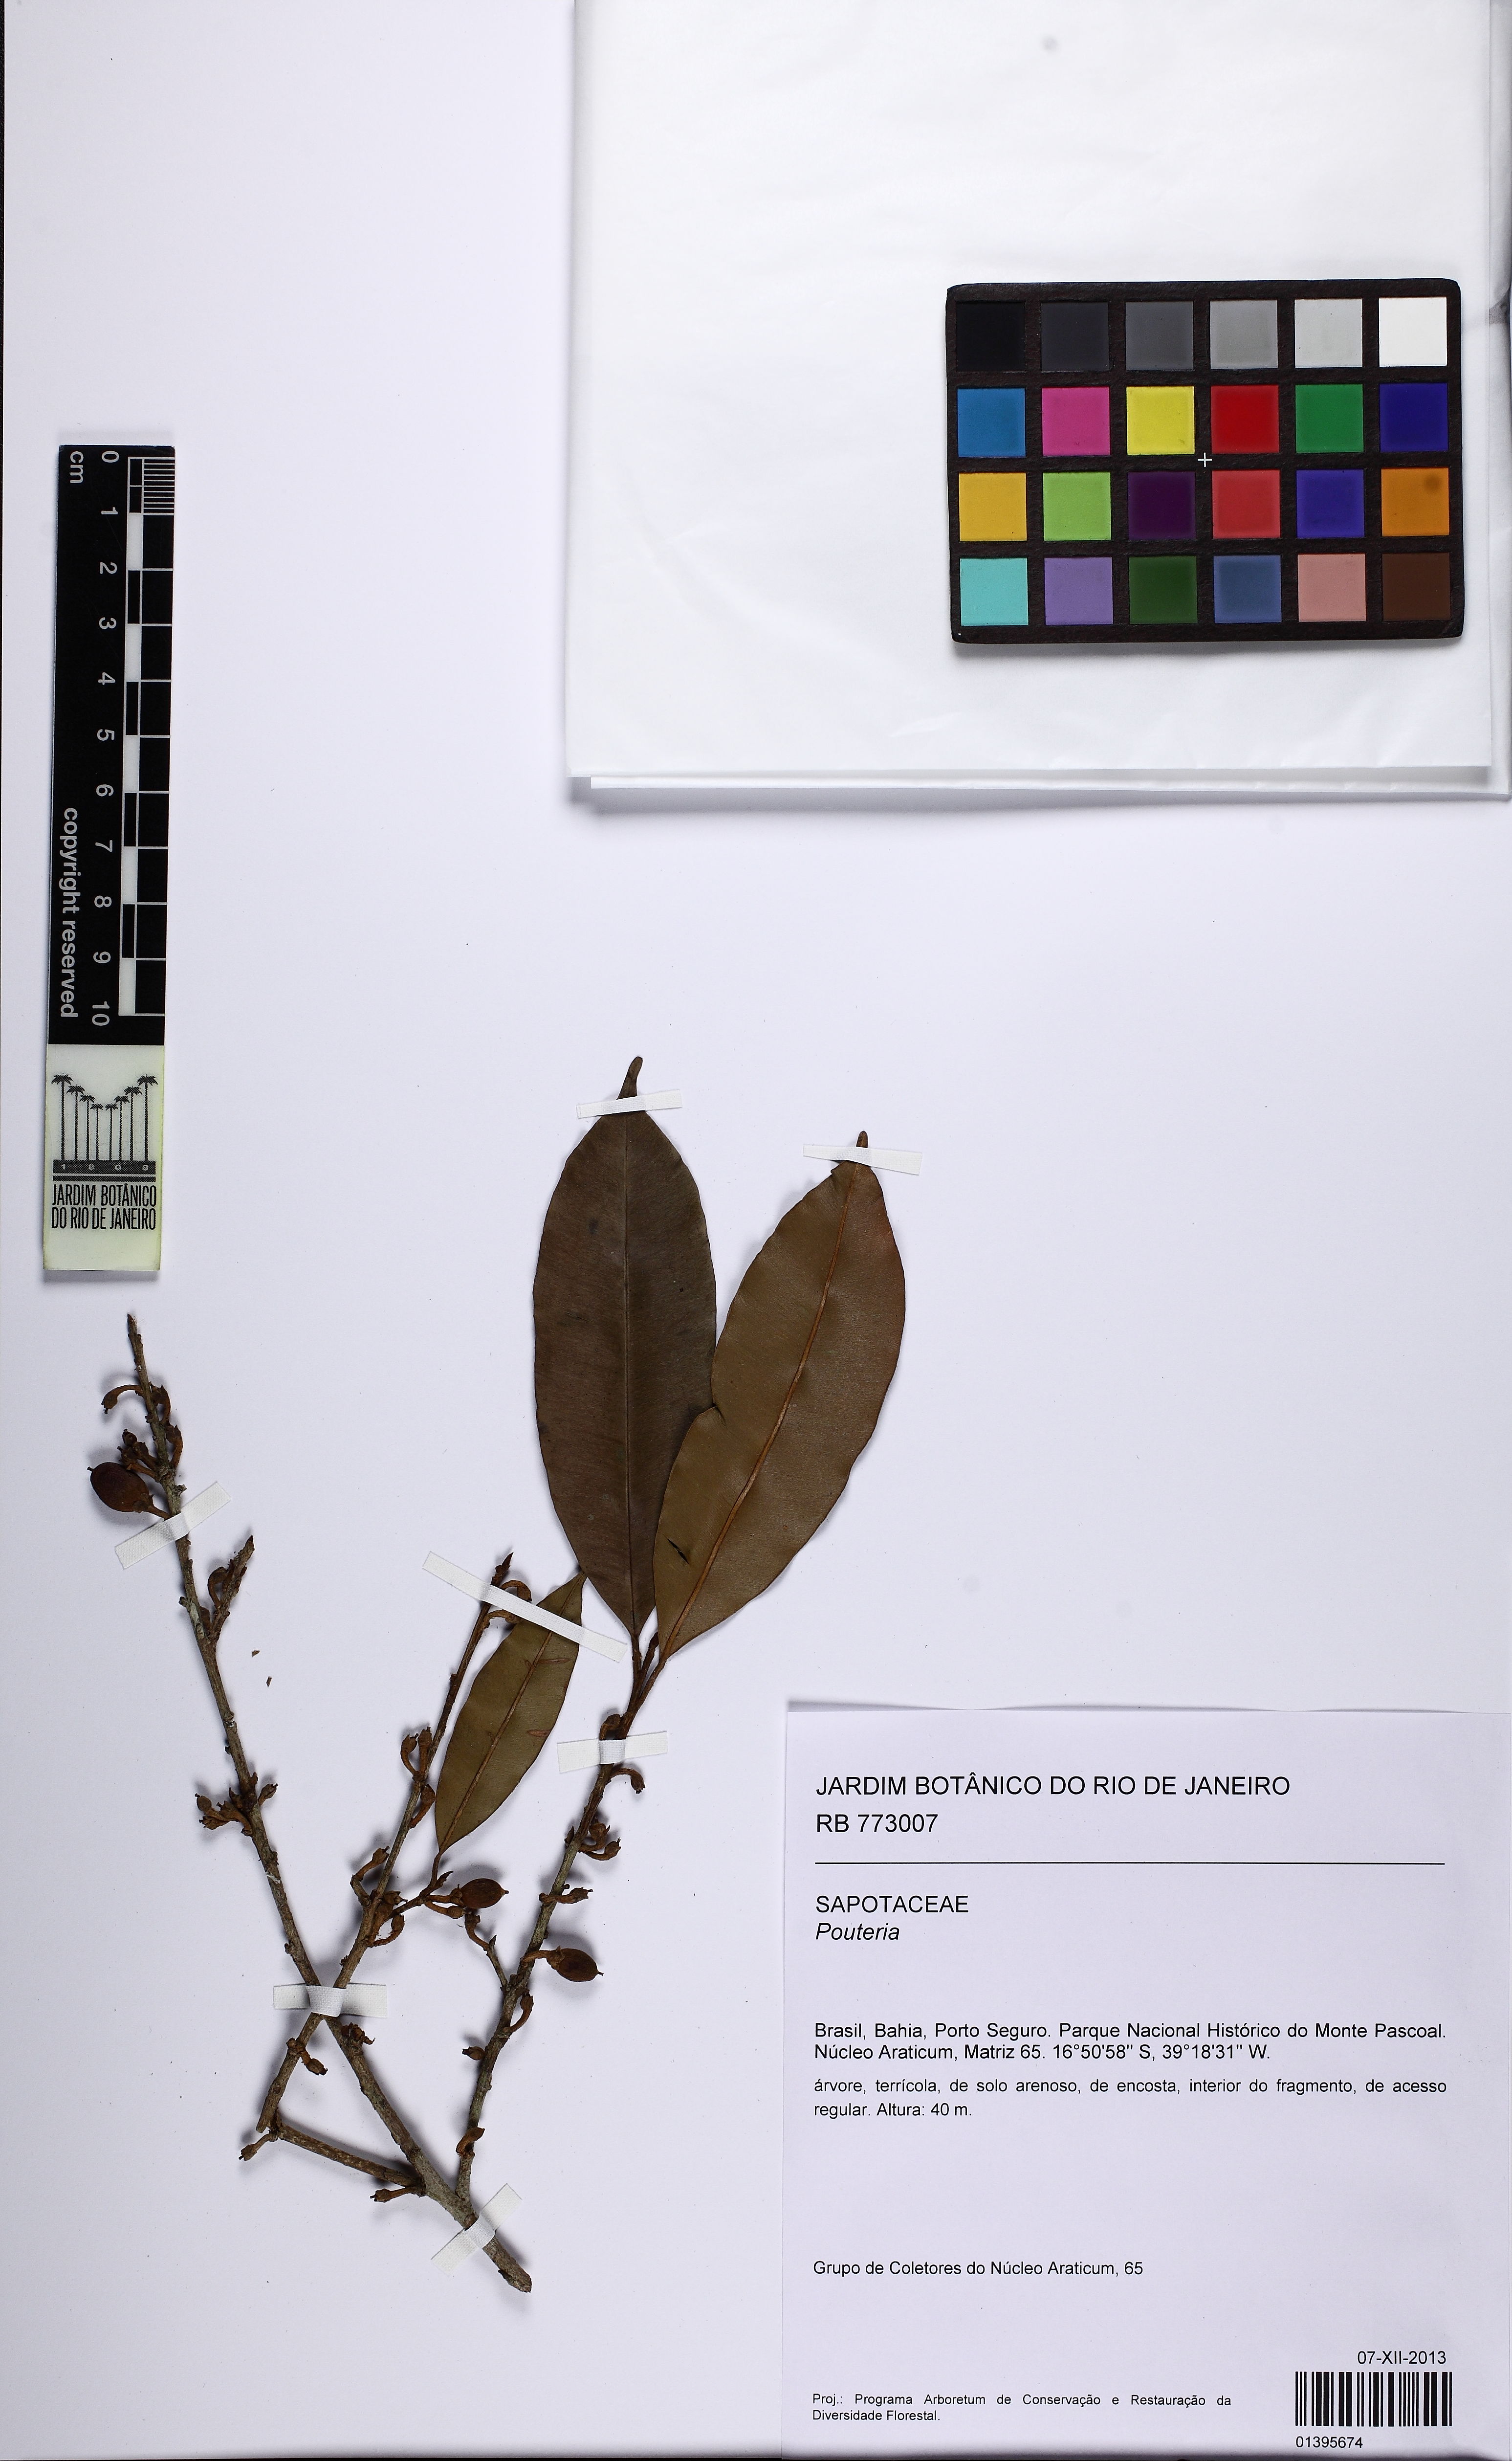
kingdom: Plantae
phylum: Tracheophyta
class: Magnoliopsida
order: Ericales
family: Sapotaceae
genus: Micropholis
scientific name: Micropholis gardneriana
